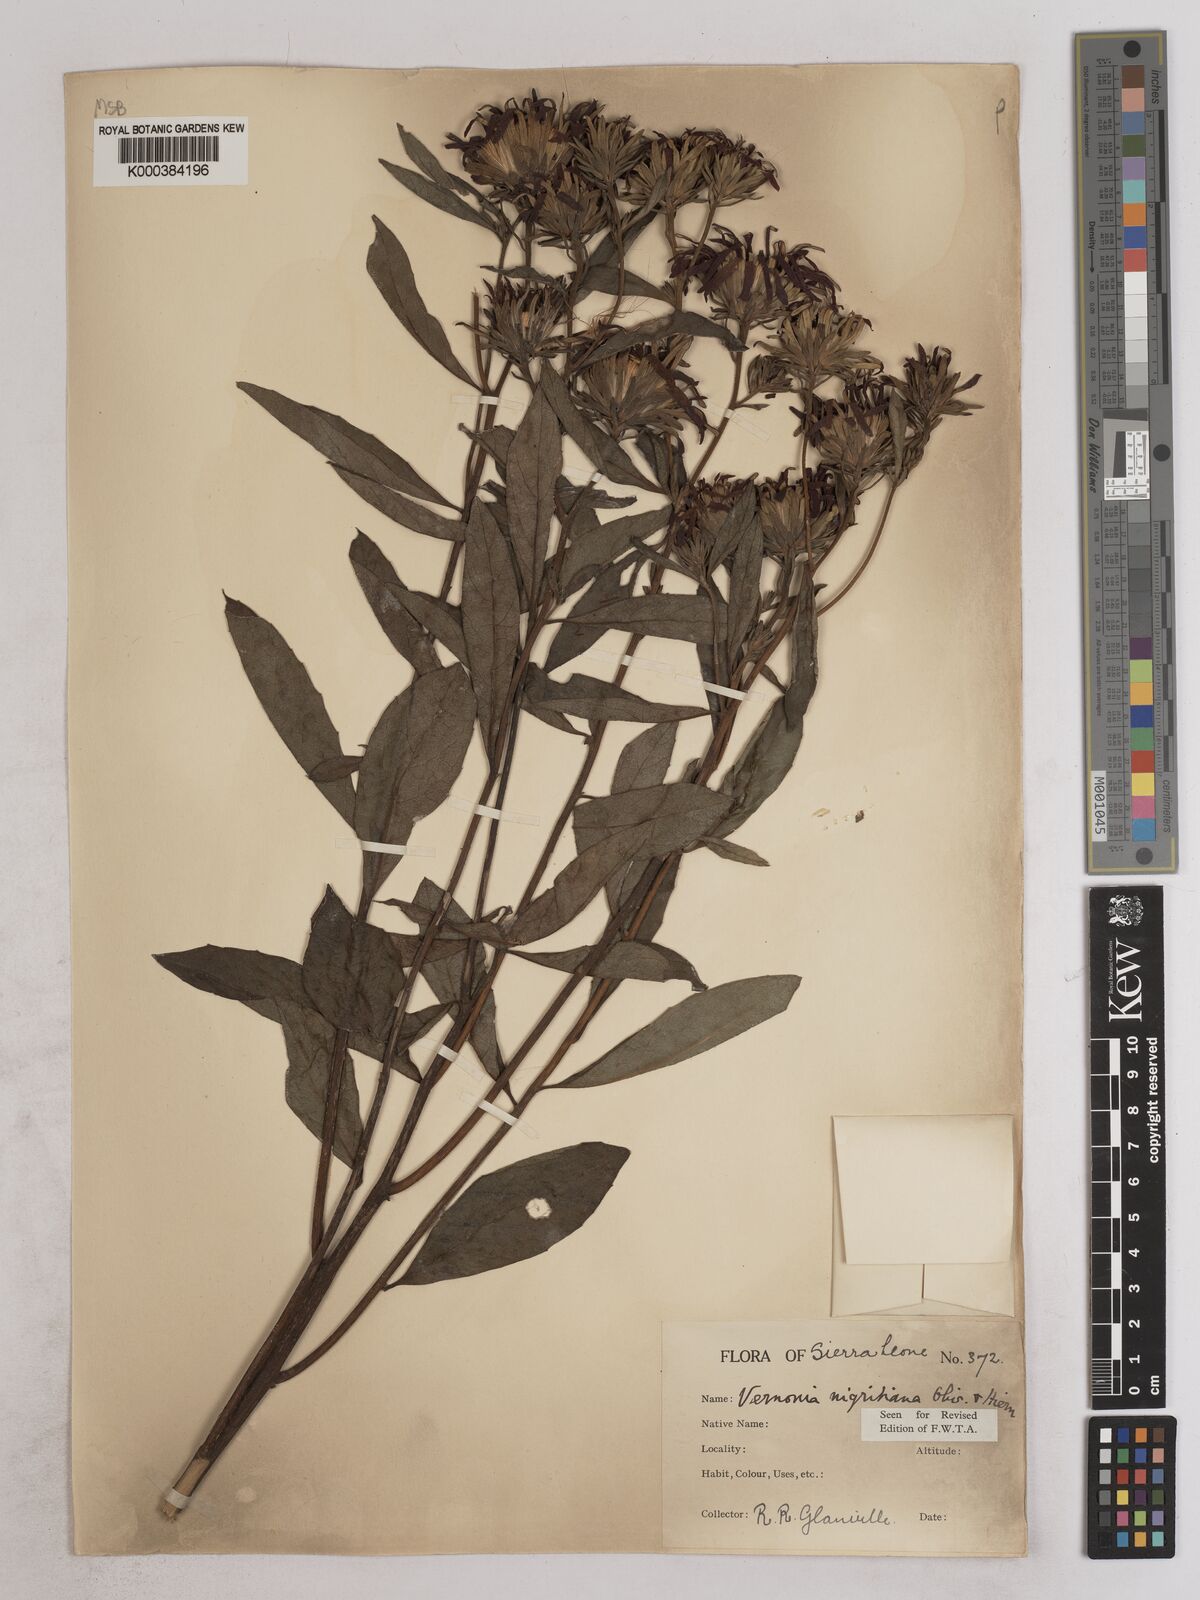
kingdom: Plantae
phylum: Tracheophyta
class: Magnoliopsida
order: Asterales
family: Asteraceae
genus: Linzia
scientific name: Linzia nigritiana
